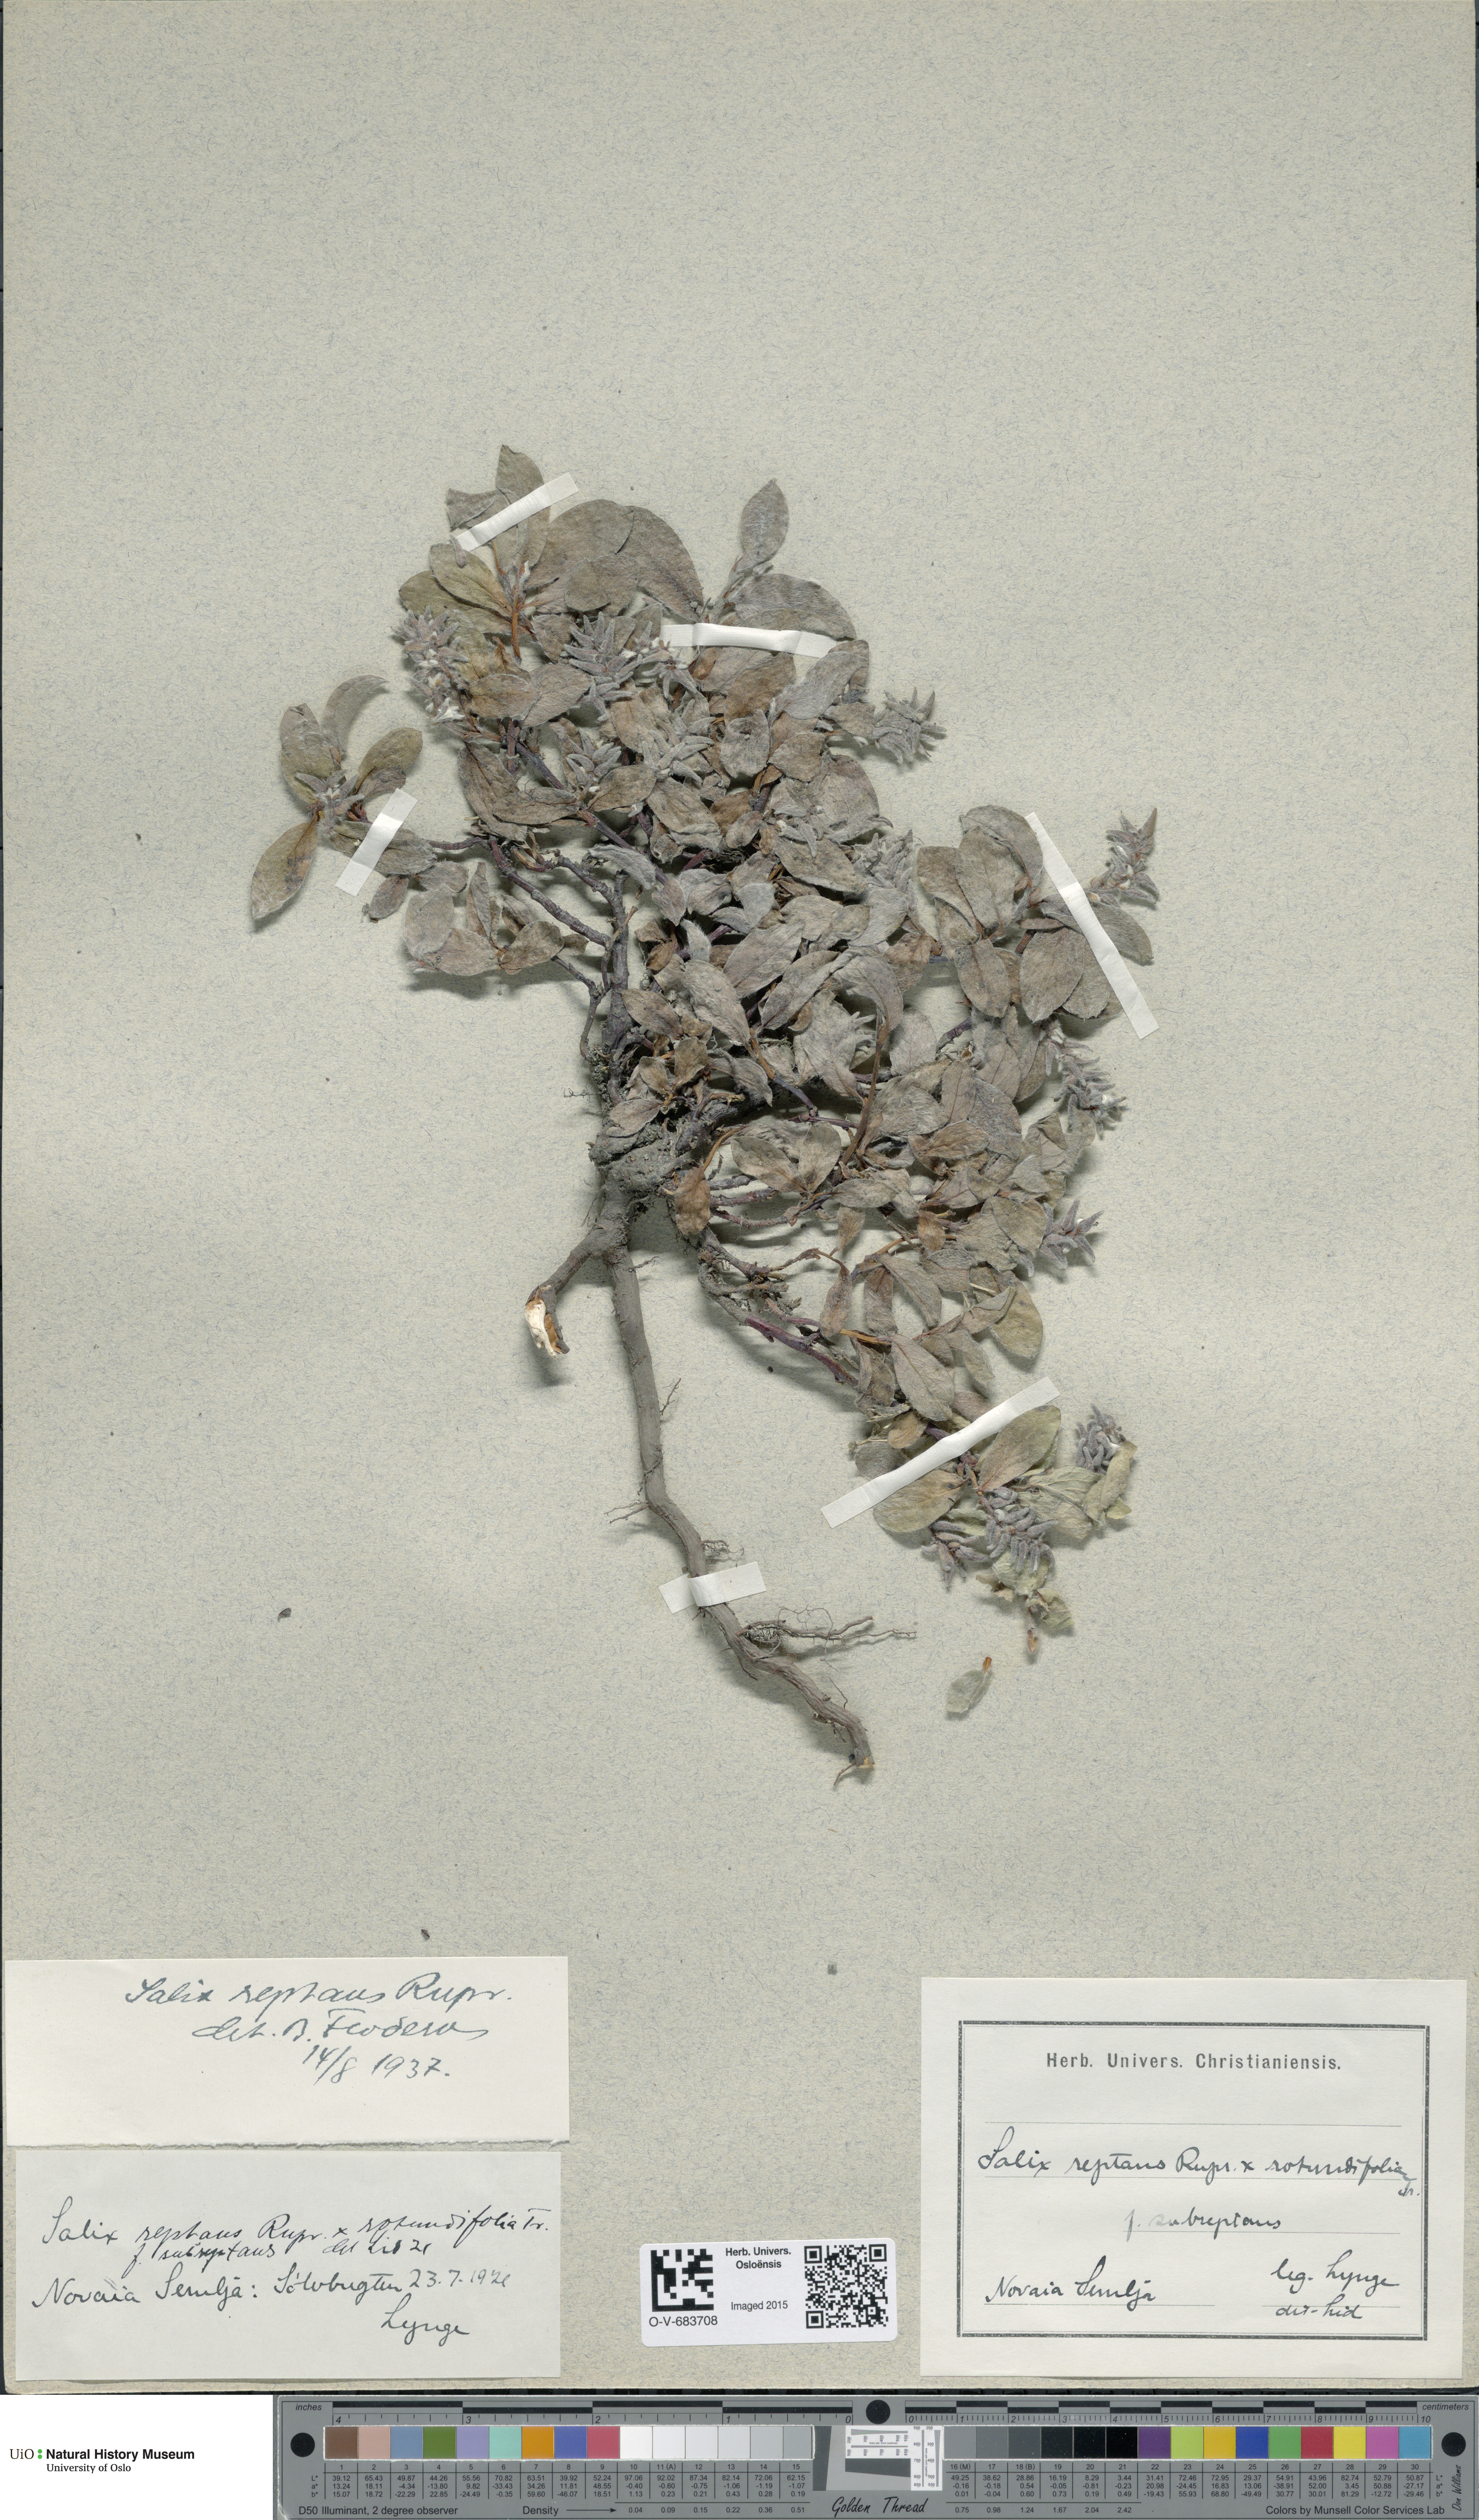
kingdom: Plantae
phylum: Tracheophyta
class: Magnoliopsida
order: Malpighiales
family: Salicaceae
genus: Salix
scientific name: Salix reptans
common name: Arctic creeping willow
